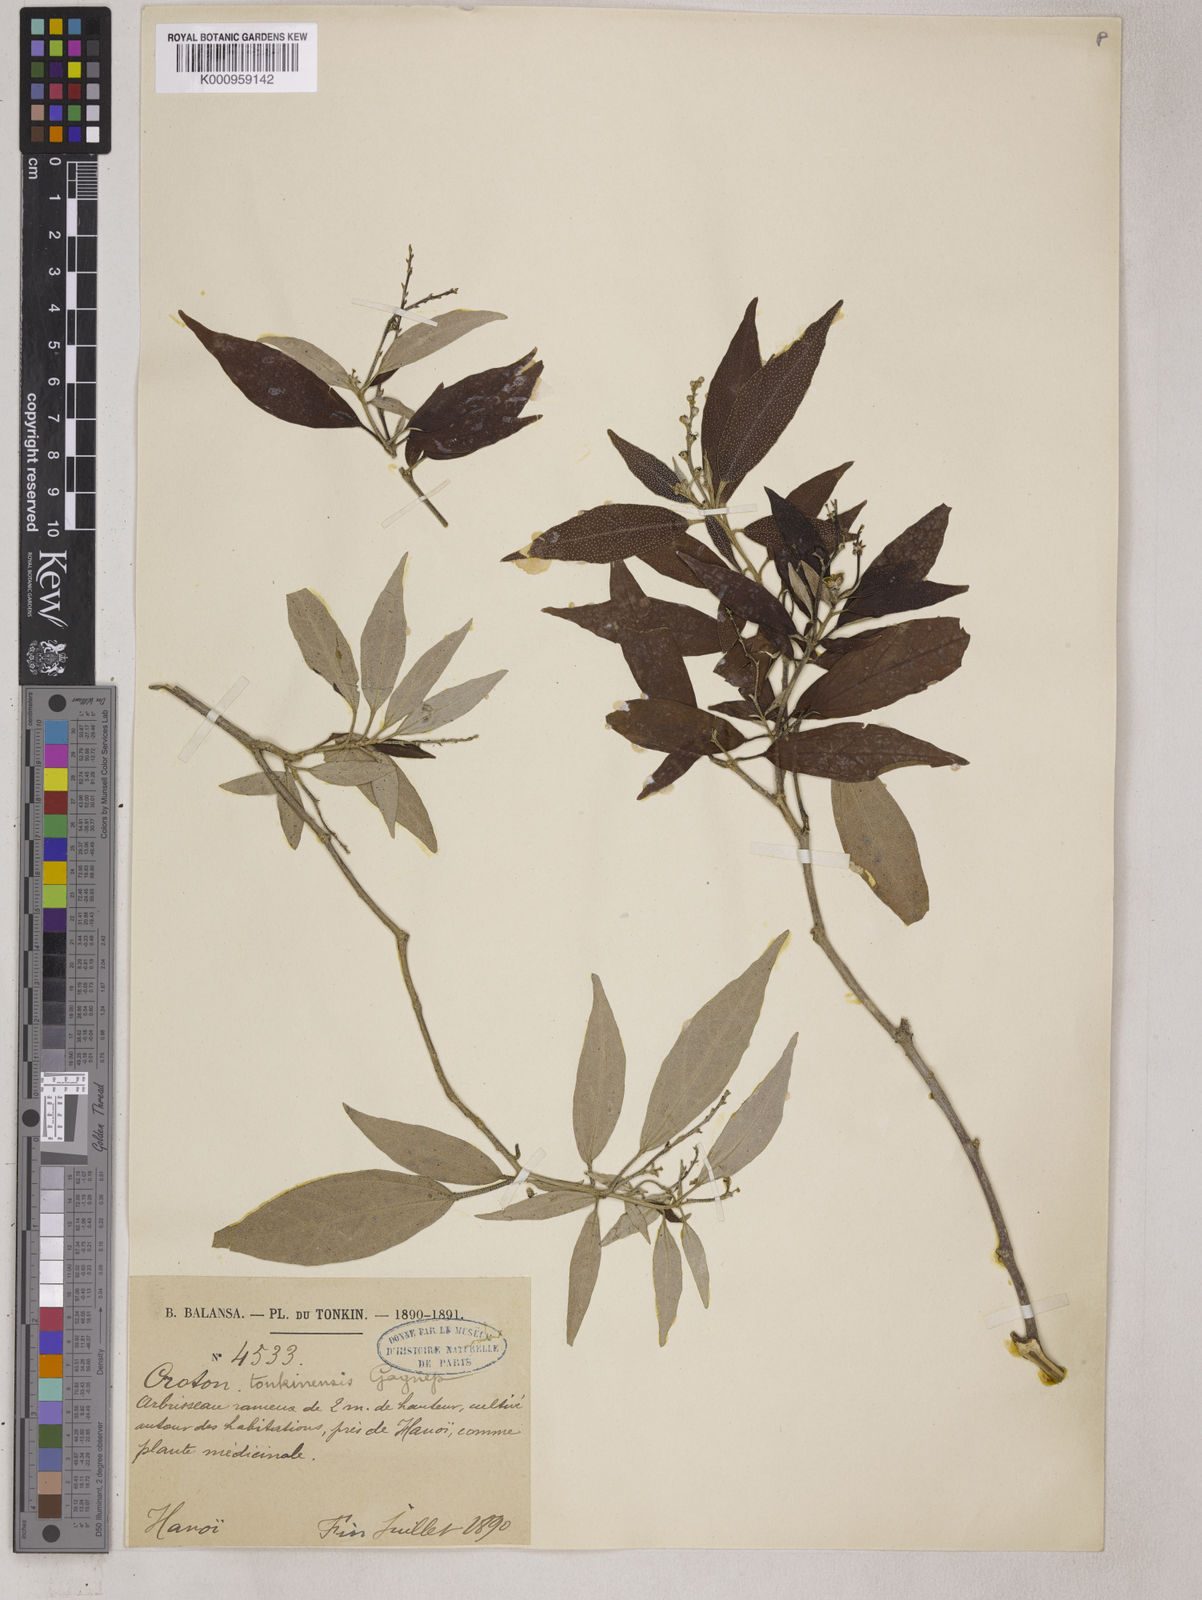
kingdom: Plantae
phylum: Tracheophyta
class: Magnoliopsida
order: Malpighiales
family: Euphorbiaceae
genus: Croton
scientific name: Croton kongensis
